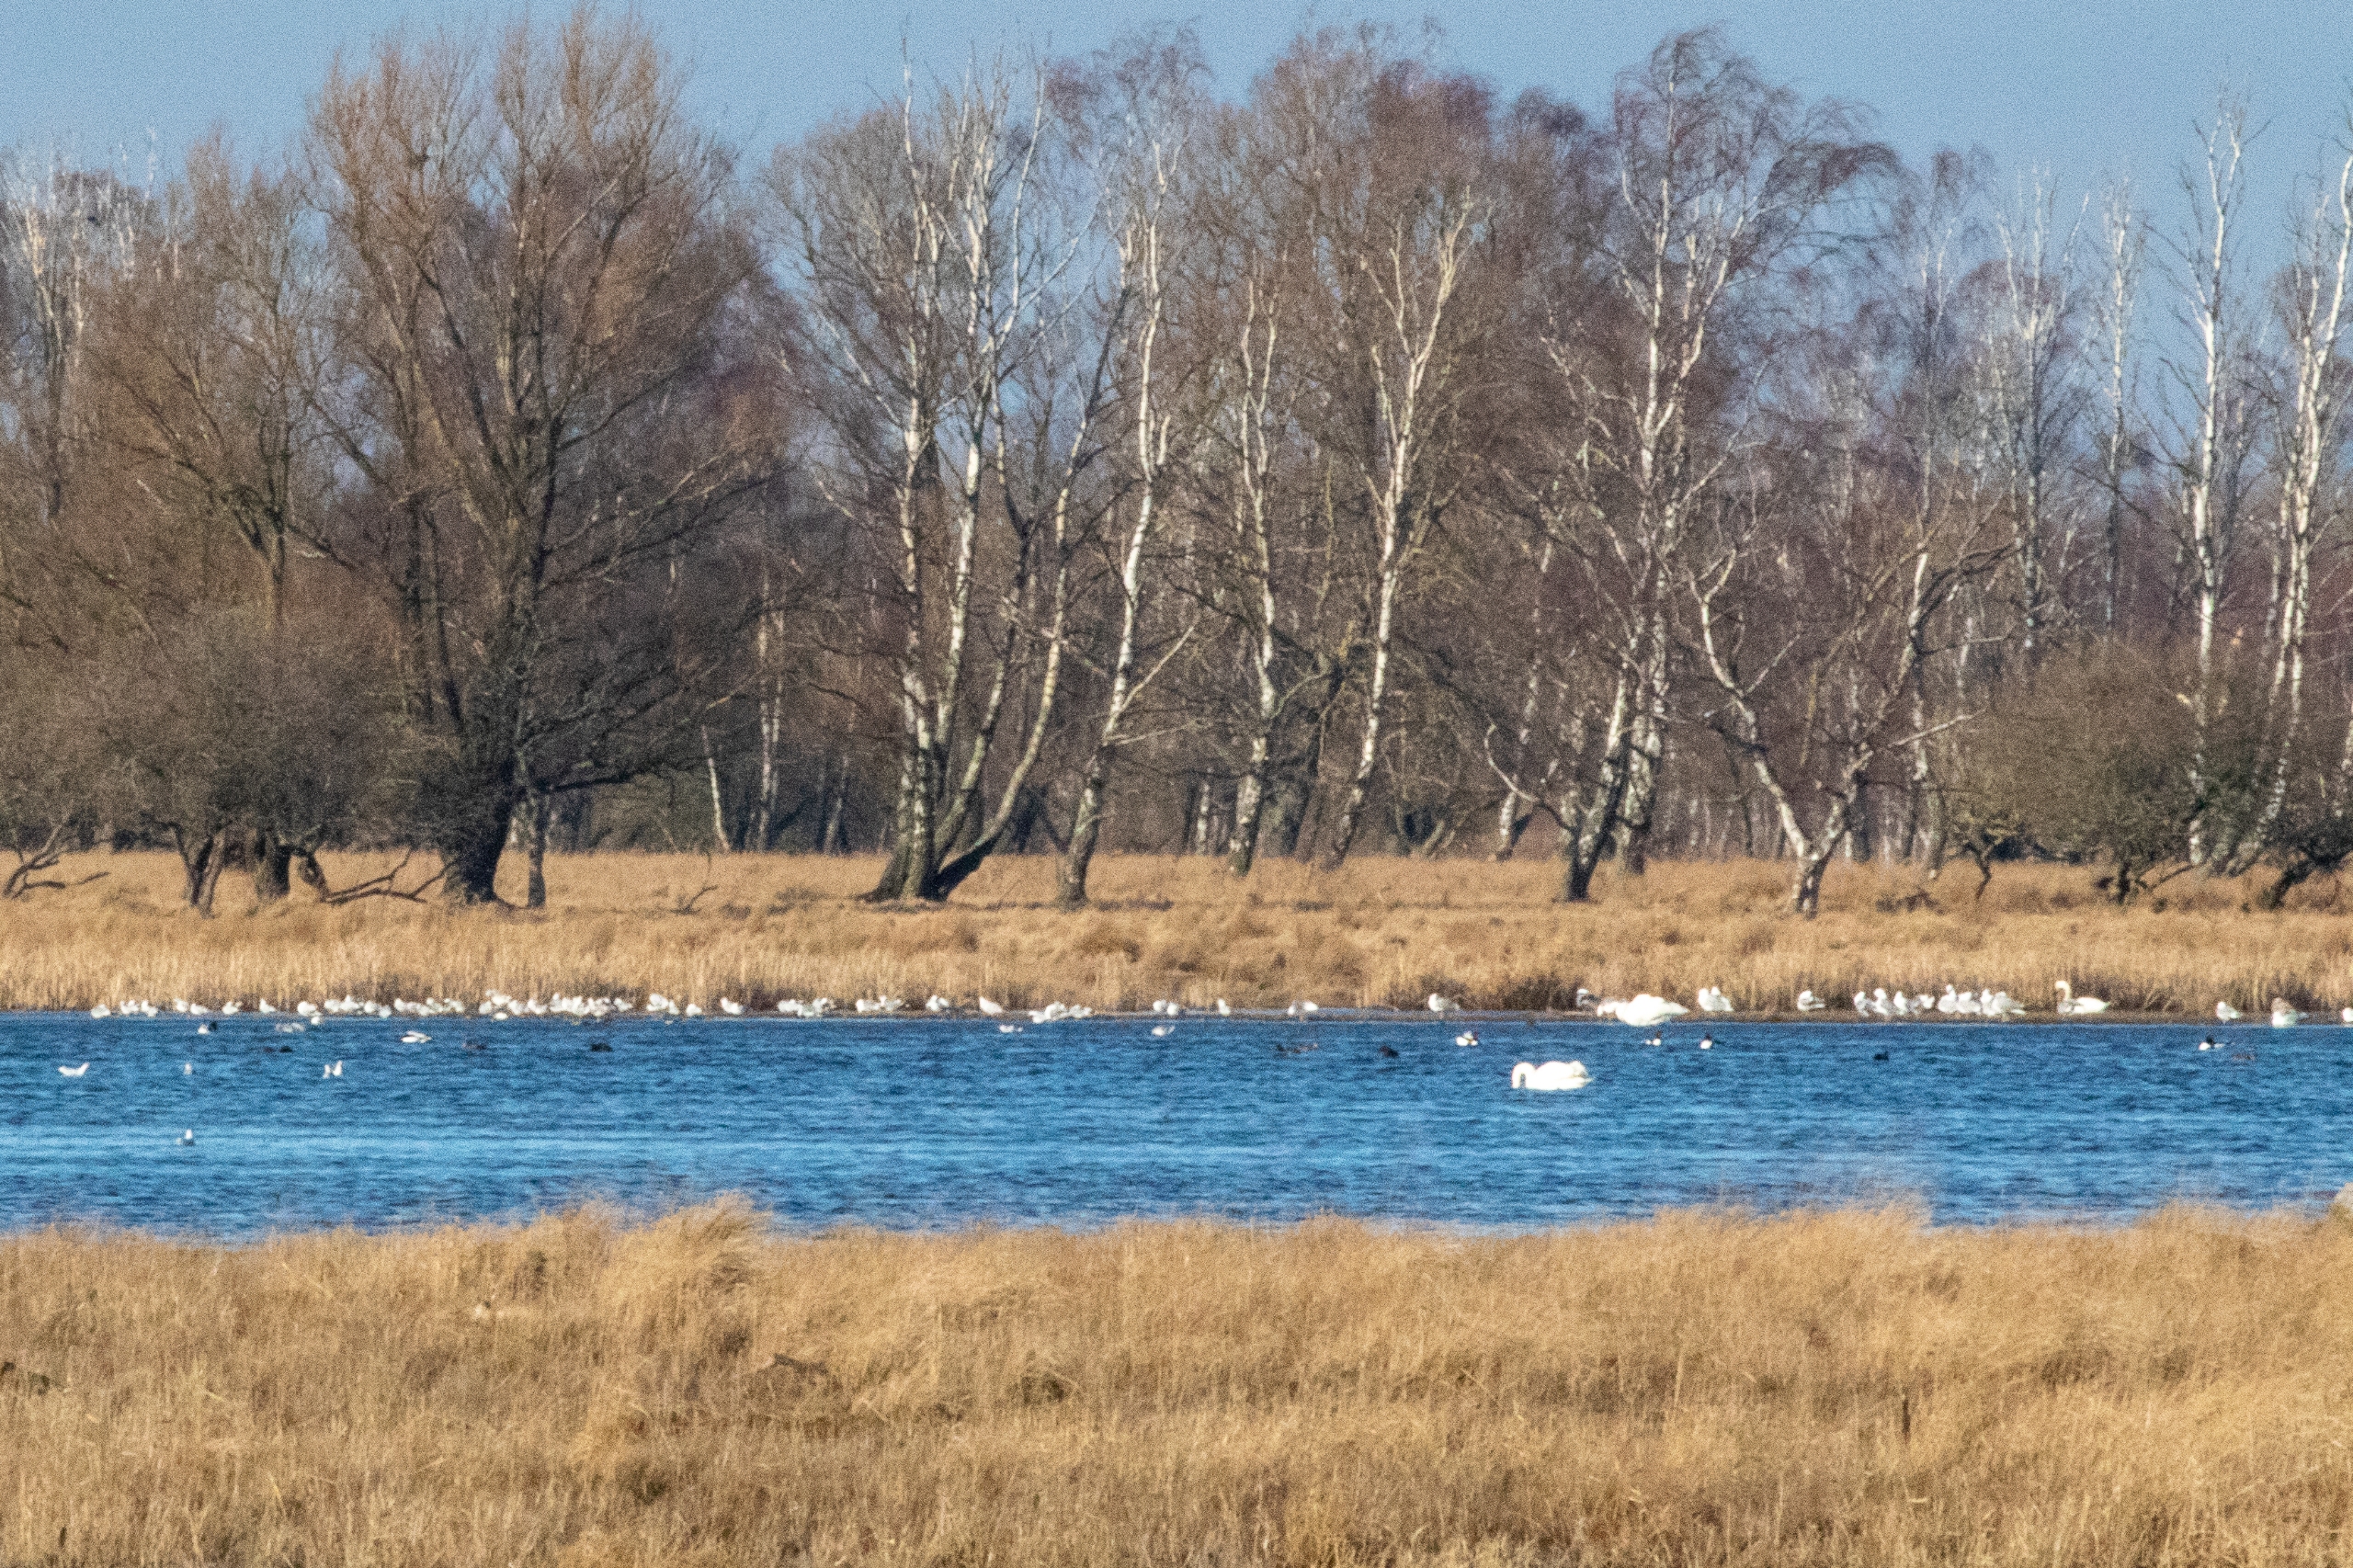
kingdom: Animalia
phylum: Chordata
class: Aves
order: Anseriformes
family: Anatidae
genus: Tadorna
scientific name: Tadorna tadorna
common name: Gravand
